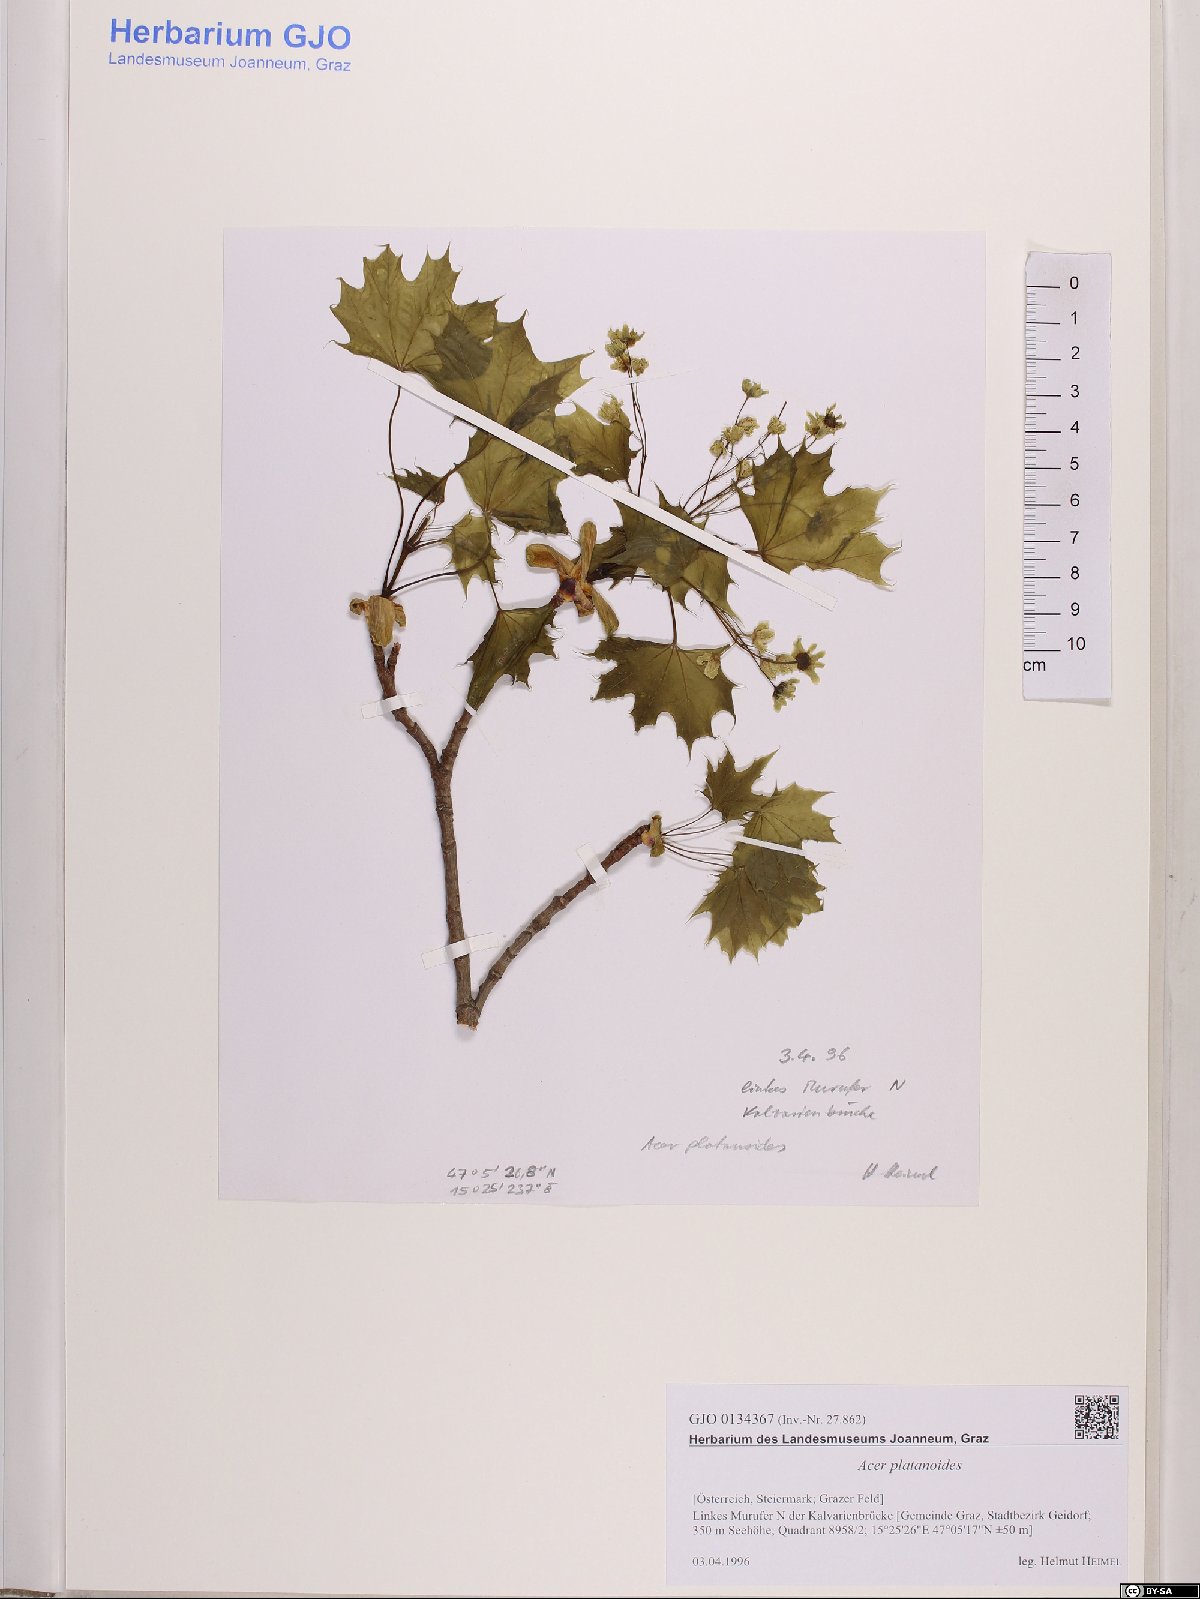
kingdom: Plantae
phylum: Tracheophyta
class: Magnoliopsida
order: Sapindales
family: Sapindaceae
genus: Acer
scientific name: Acer platanoides
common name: Norway maple
